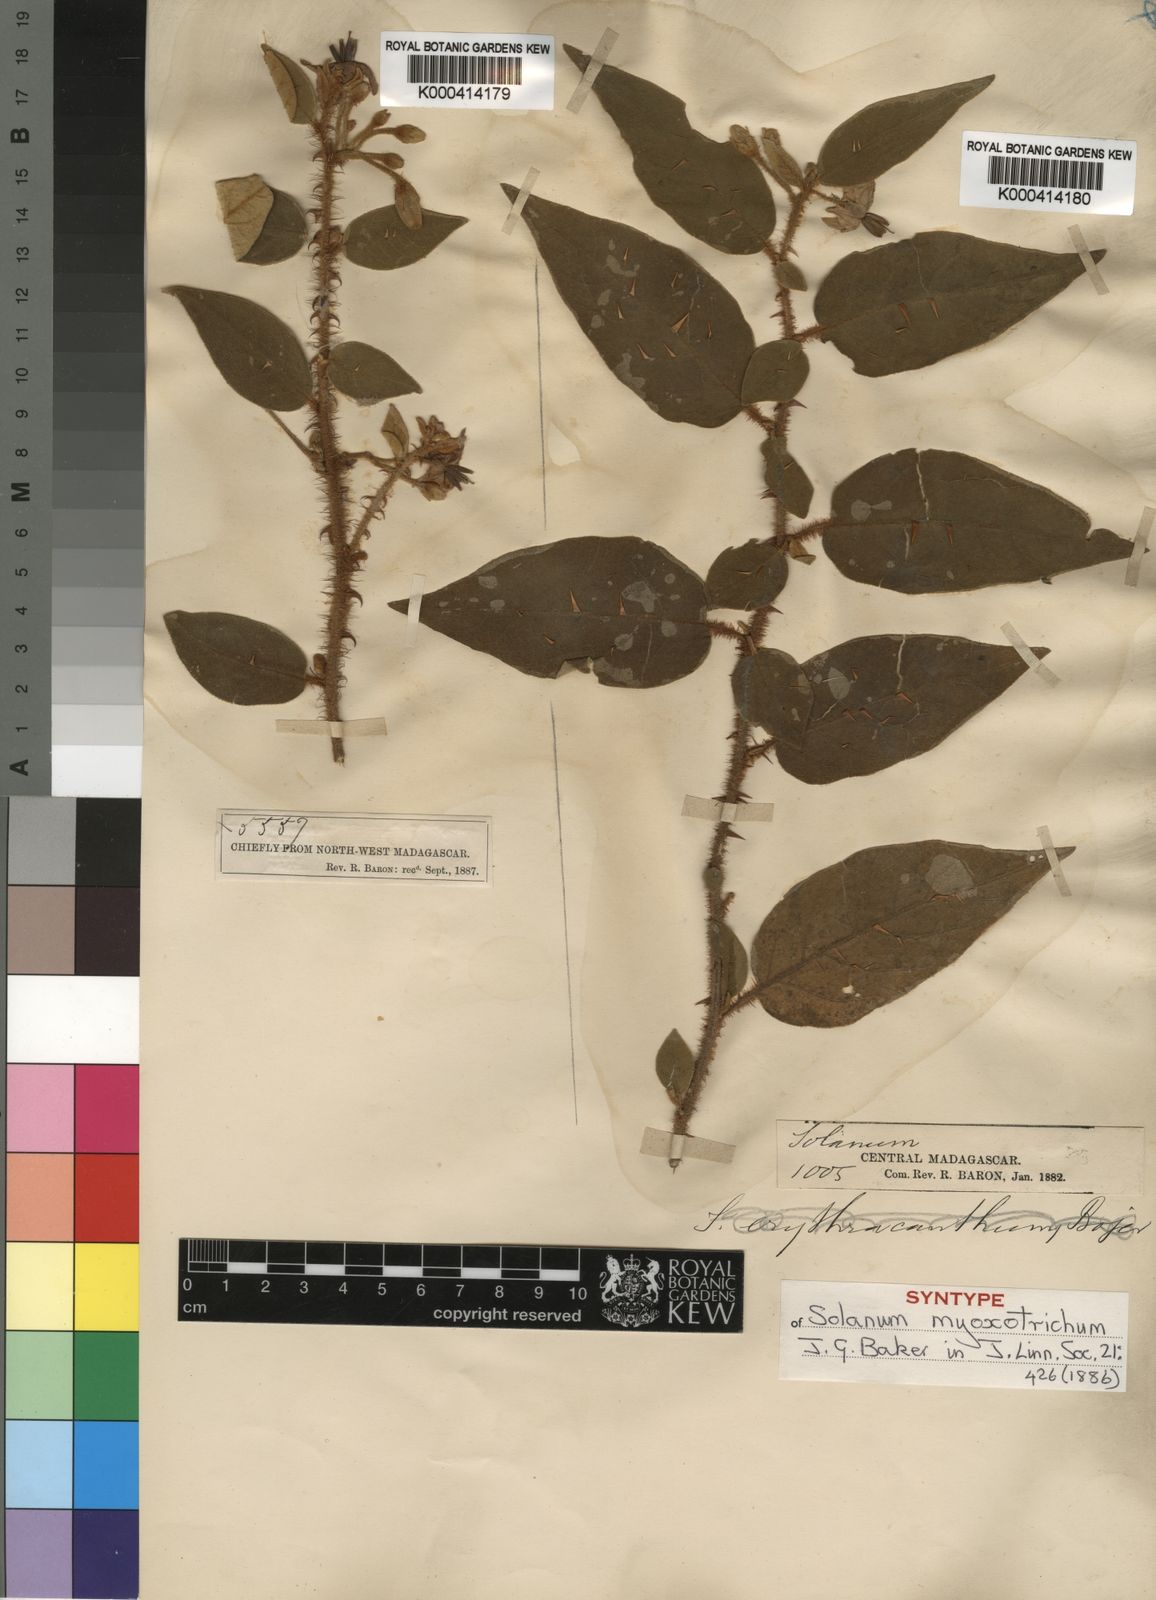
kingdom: Plantae
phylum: Tracheophyta
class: Magnoliopsida
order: Solanales
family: Solanaceae
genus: Solanum
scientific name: Solanum myoxotrichum
